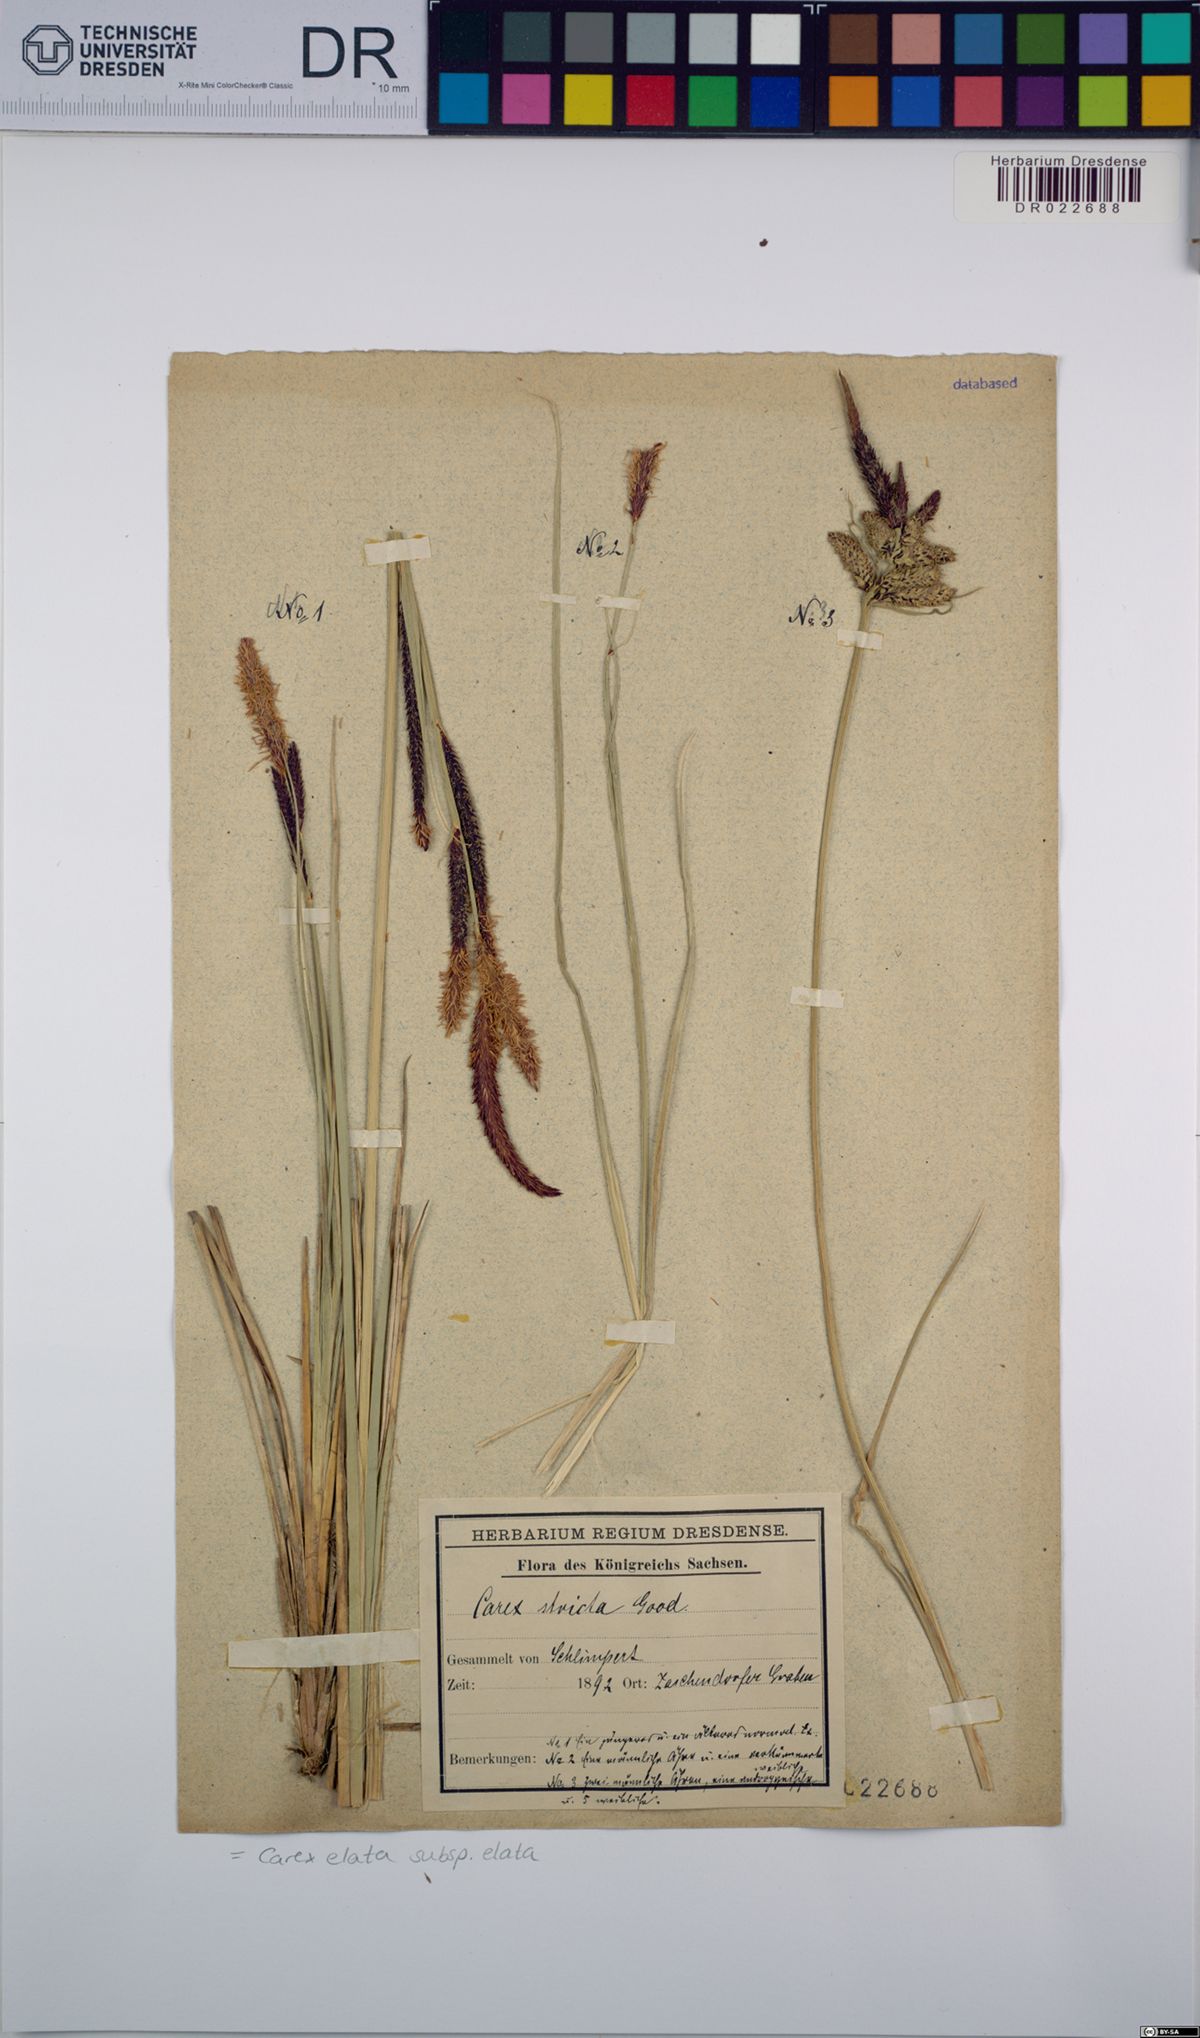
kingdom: Plantae
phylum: Tracheophyta
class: Liliopsida
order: Poales
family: Cyperaceae
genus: Carex
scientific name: Carex elata
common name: Tufted sedge
